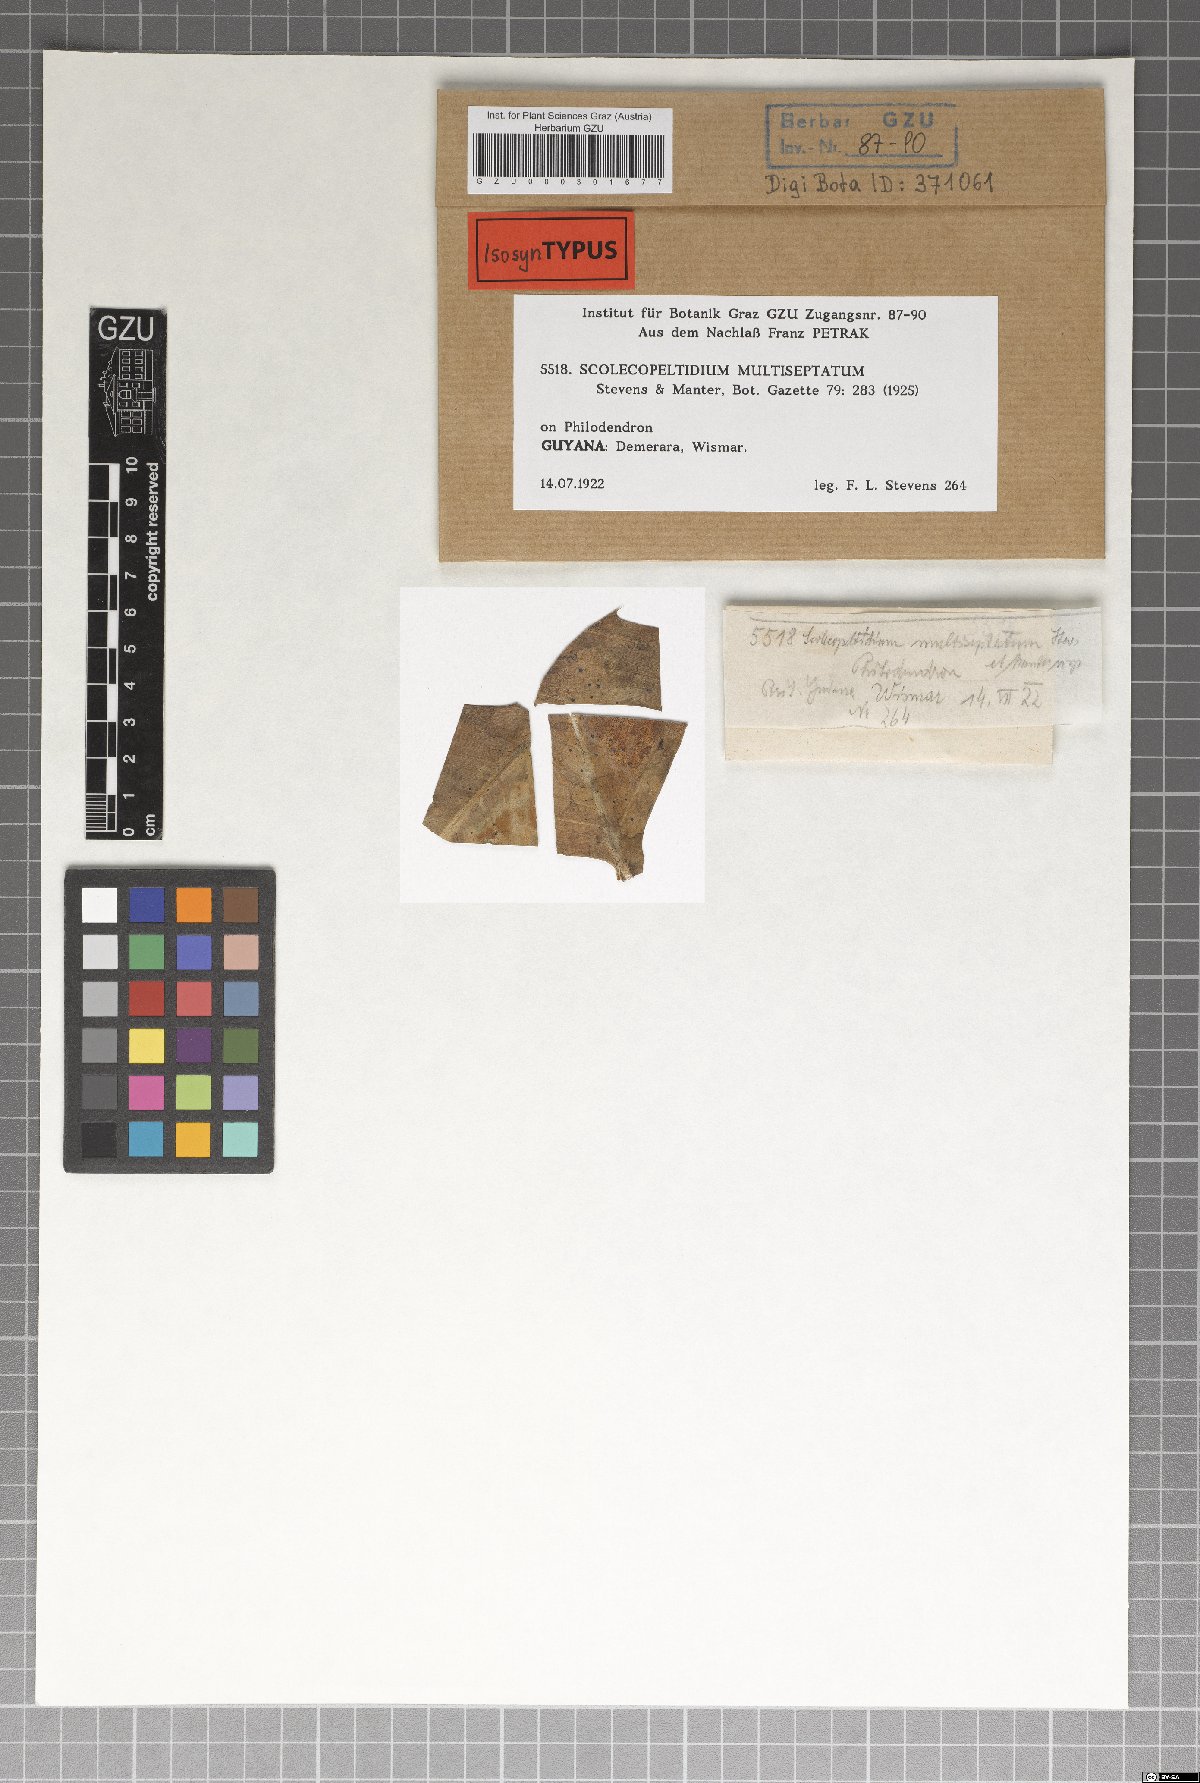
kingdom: Fungi
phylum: Ascomycota
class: Dothideomycetes
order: Microthyriales
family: Micropeltidaceae
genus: Micropeltis
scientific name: Micropeltis multiseptata
